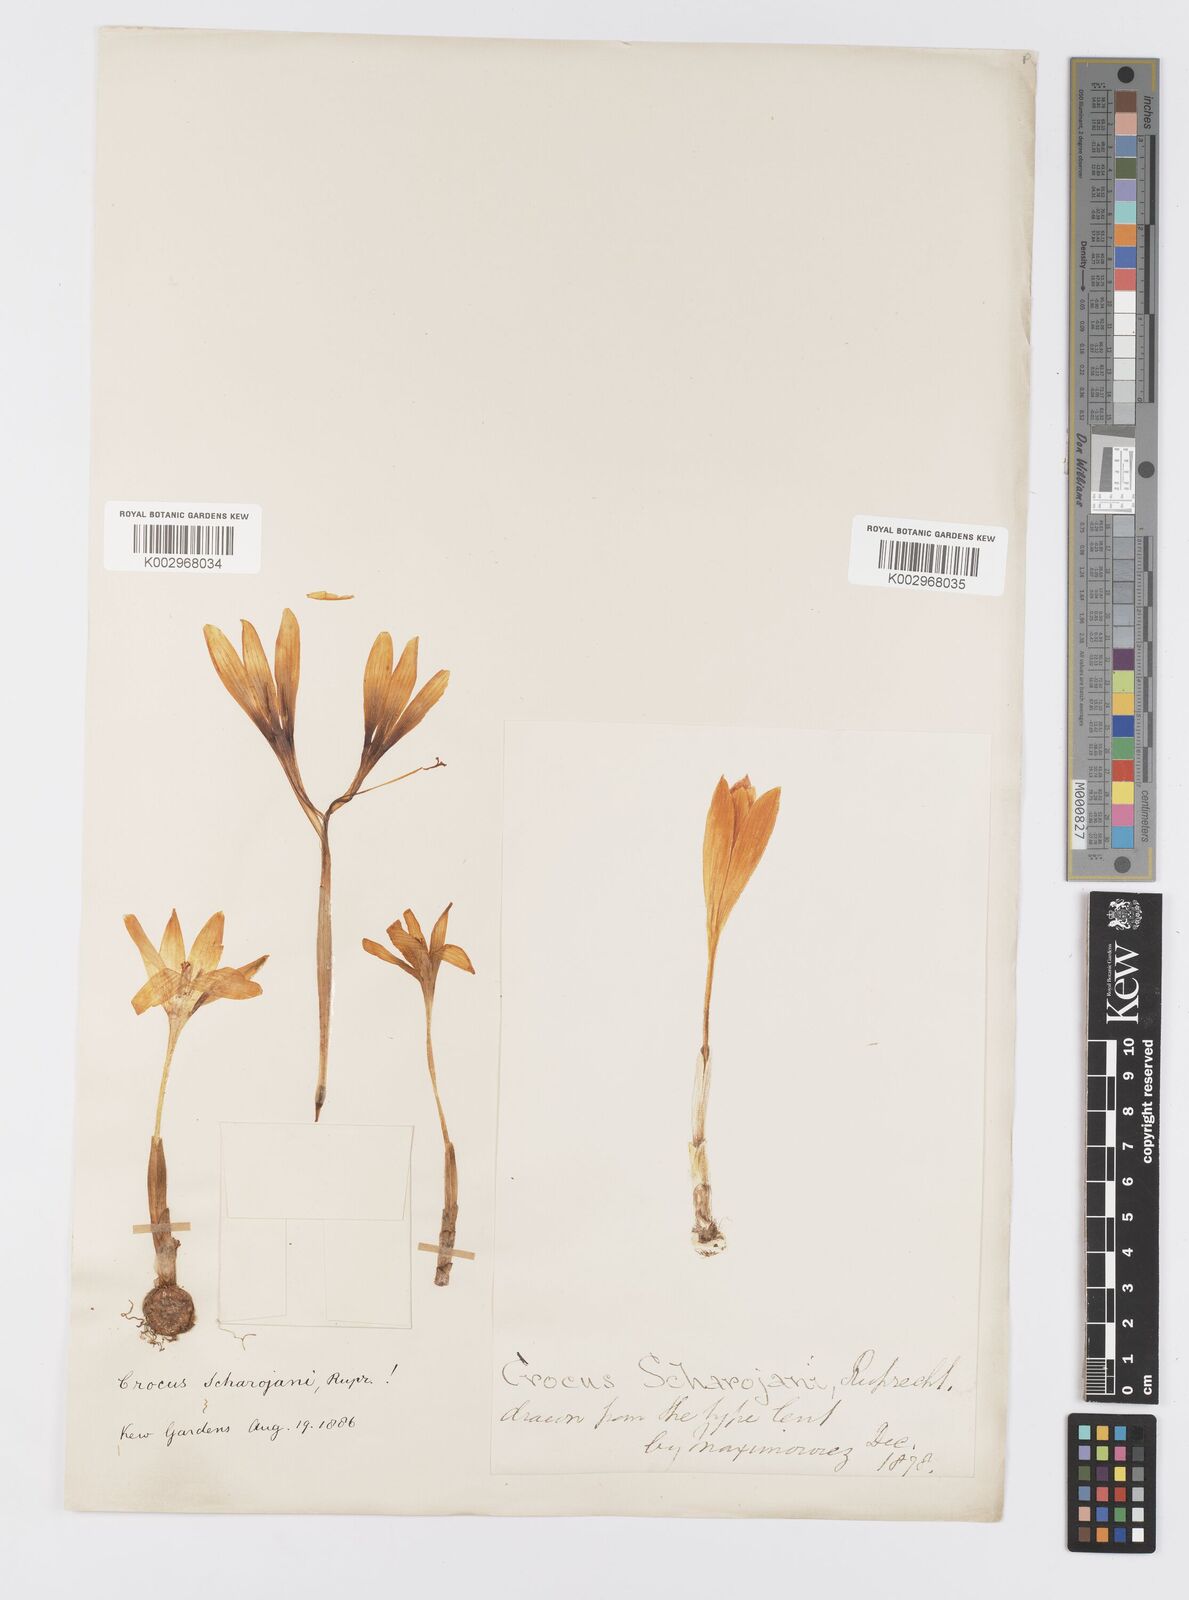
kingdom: Plantae
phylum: Tracheophyta
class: Liliopsida
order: Asparagales
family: Iridaceae
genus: Crocus
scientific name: Crocus lazicus
